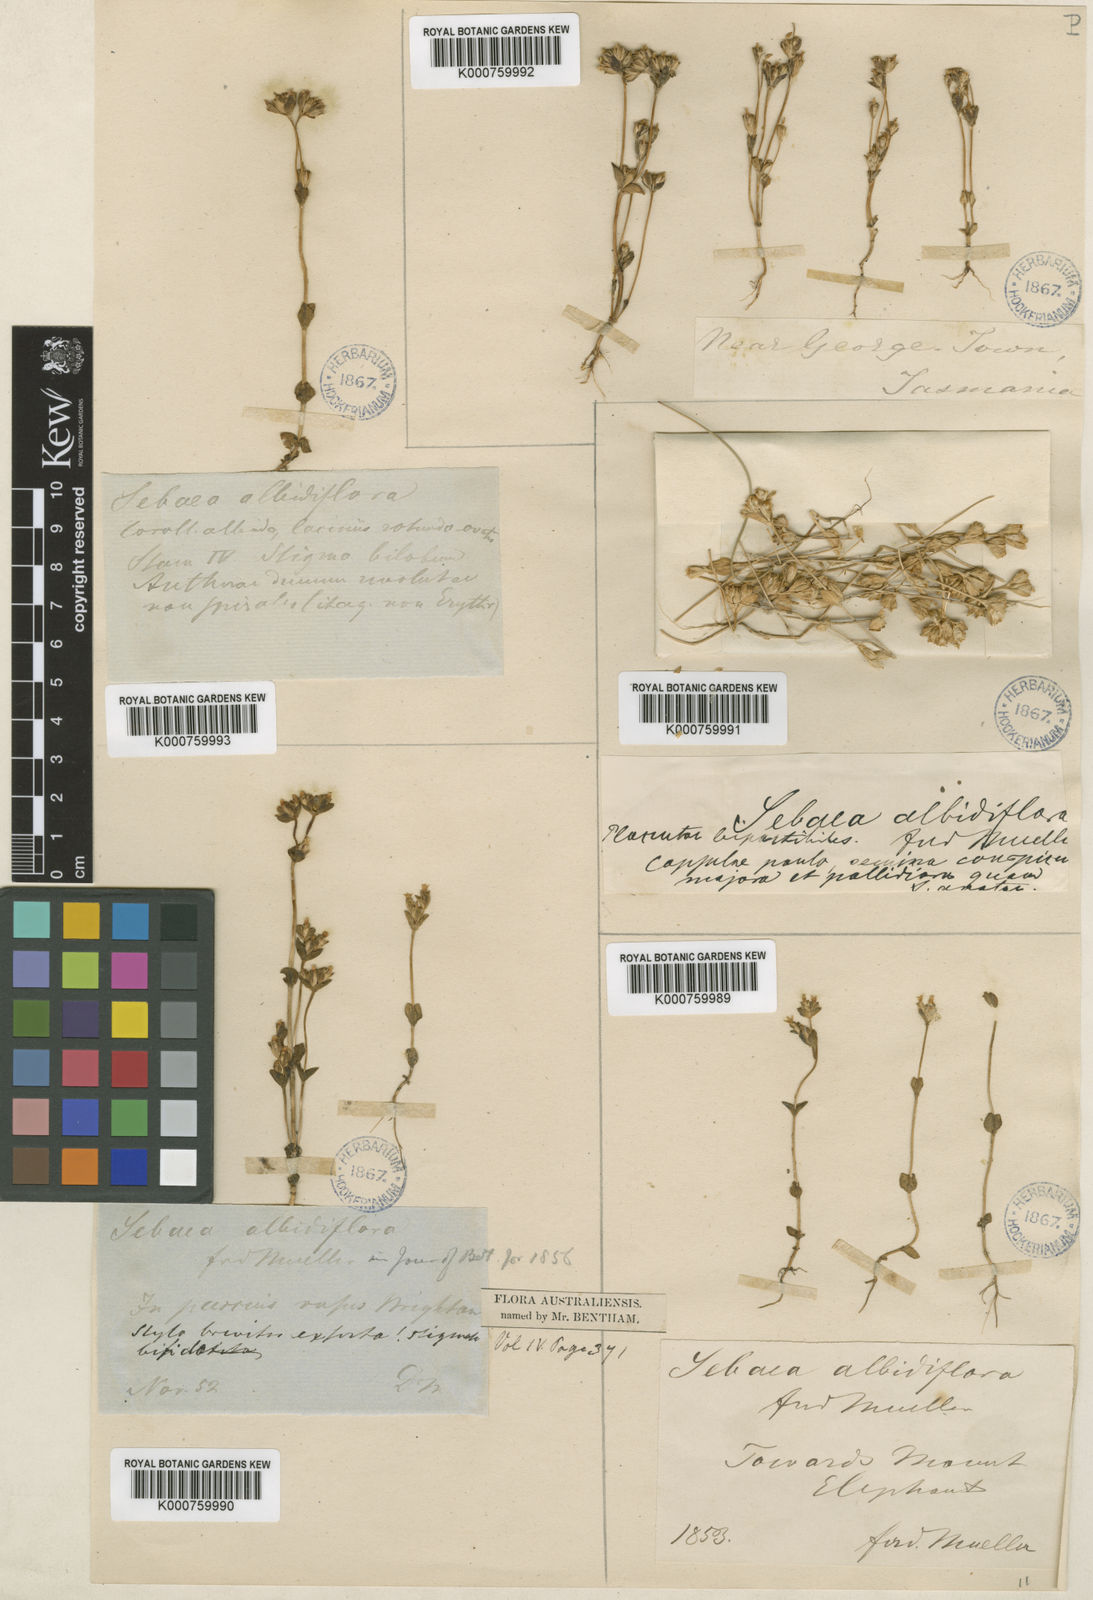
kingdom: Plantae
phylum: Tracheophyta
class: Magnoliopsida
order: Gentianales
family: Gentianaceae
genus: Sebaea
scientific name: Sebaea albidiflora
